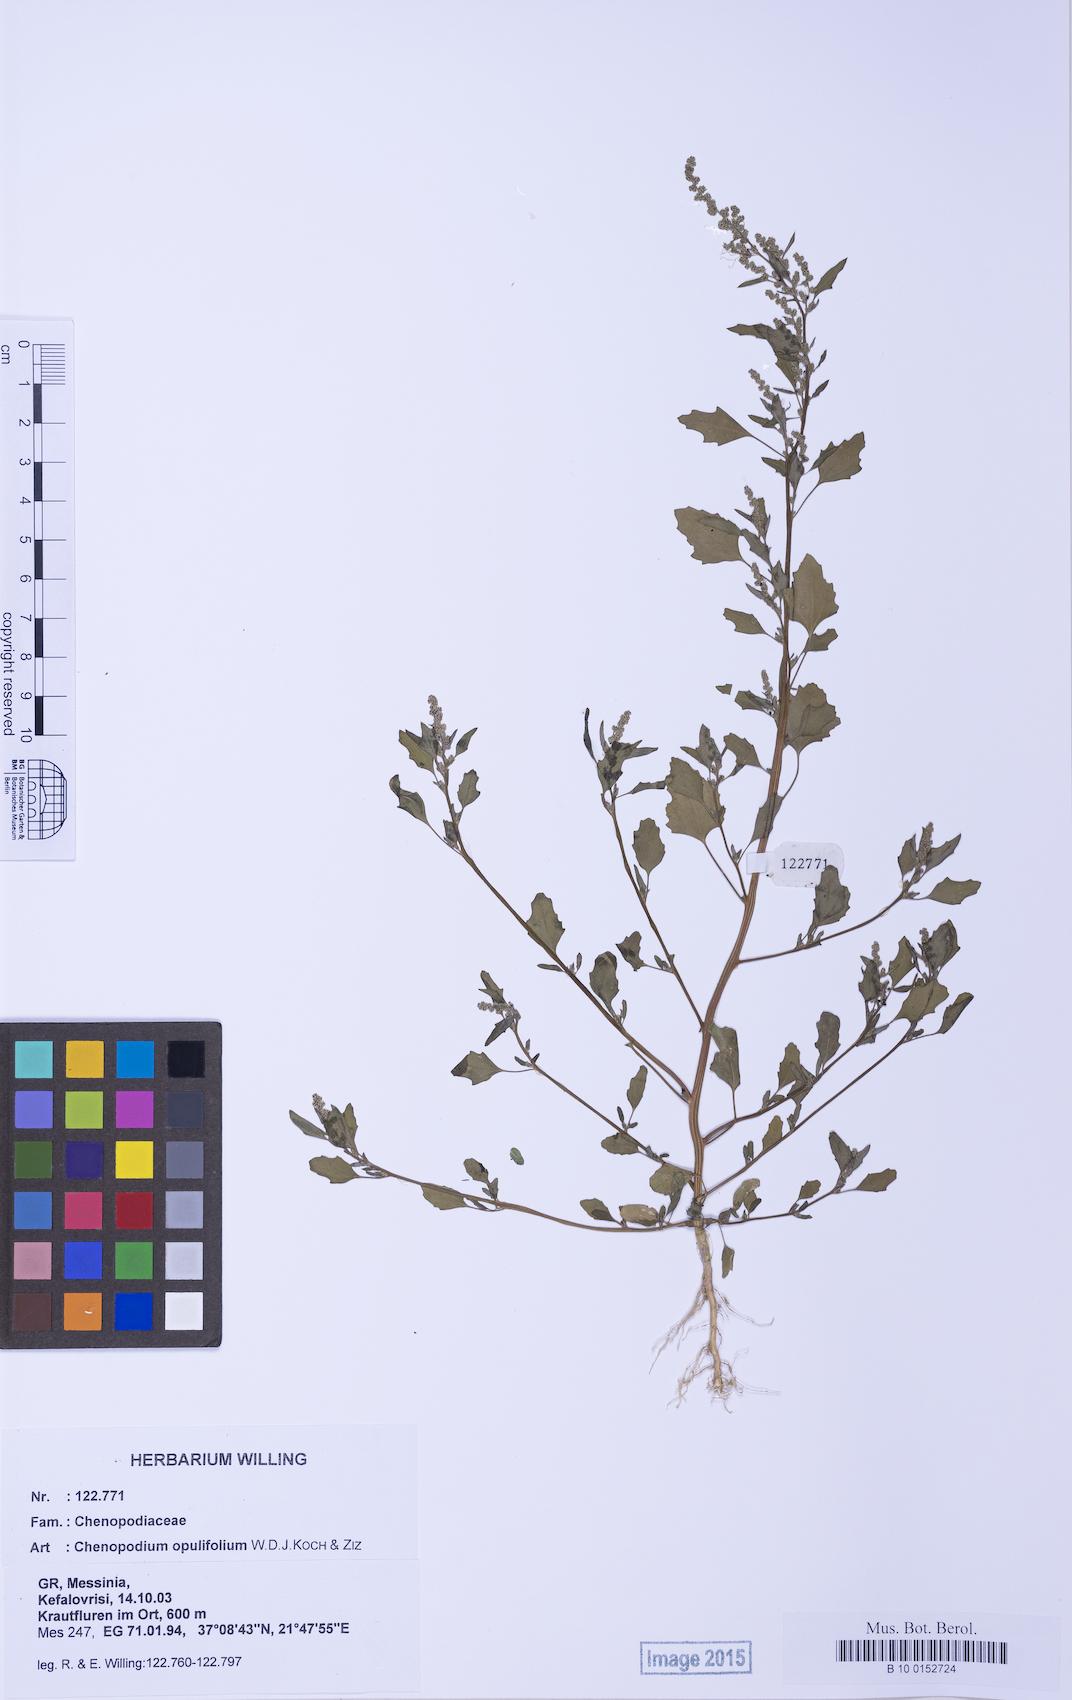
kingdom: Plantae
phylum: Tracheophyta
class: Magnoliopsida
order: Caryophyllales
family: Amaranthaceae
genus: Chenopodium
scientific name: Chenopodium album
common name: Fat-hen
